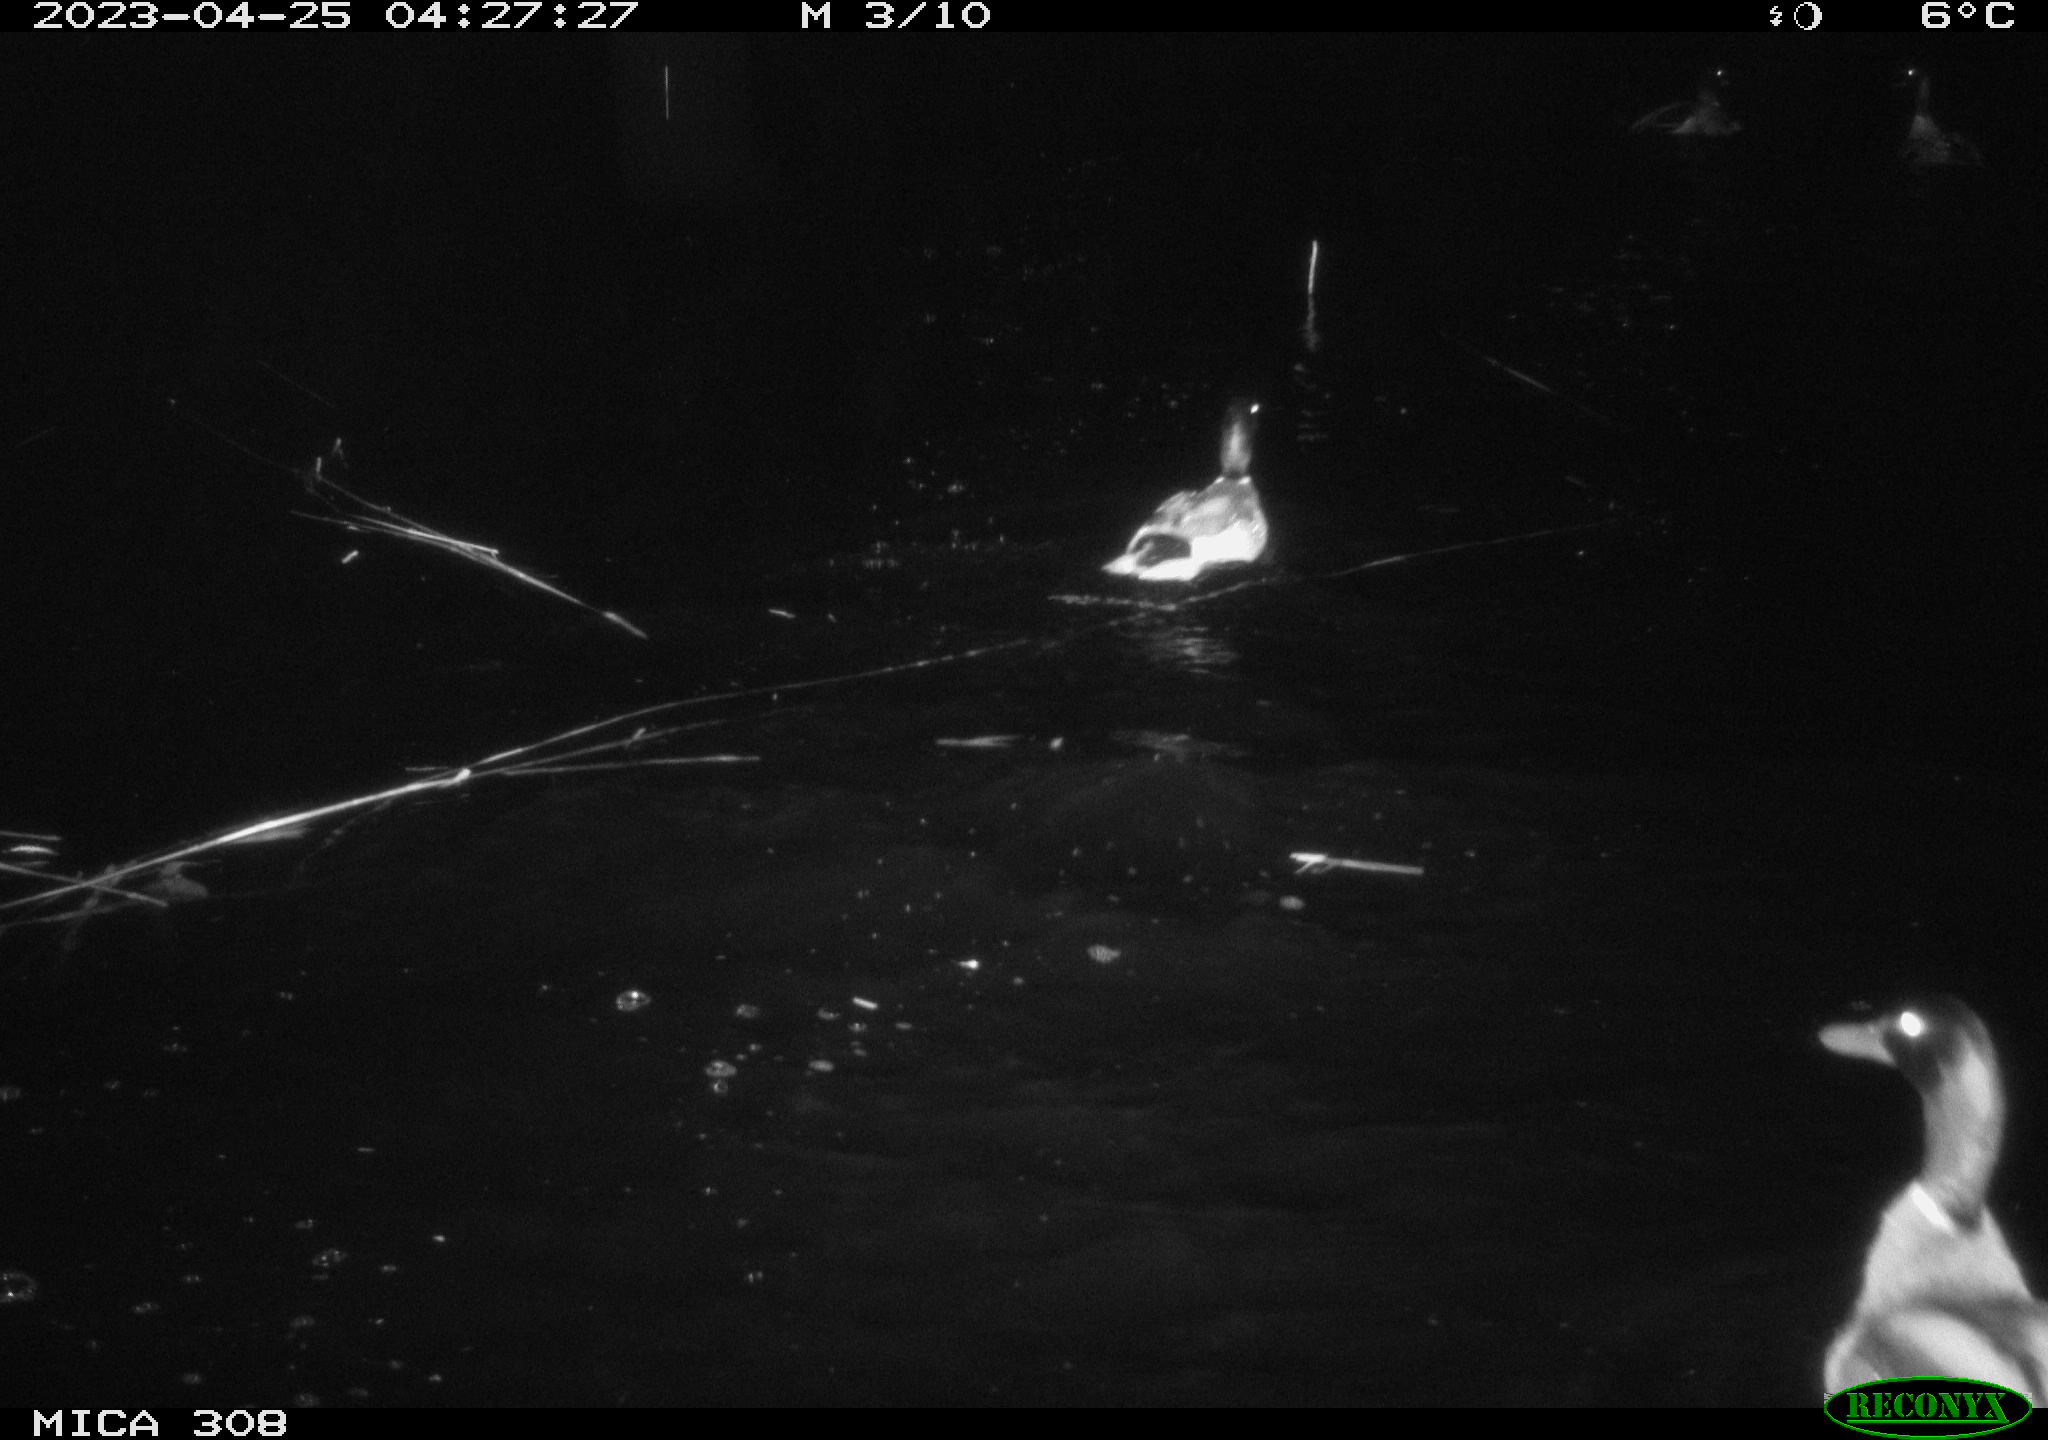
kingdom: Animalia
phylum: Chordata
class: Aves
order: Anseriformes
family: Anatidae
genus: Anas
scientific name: Anas
